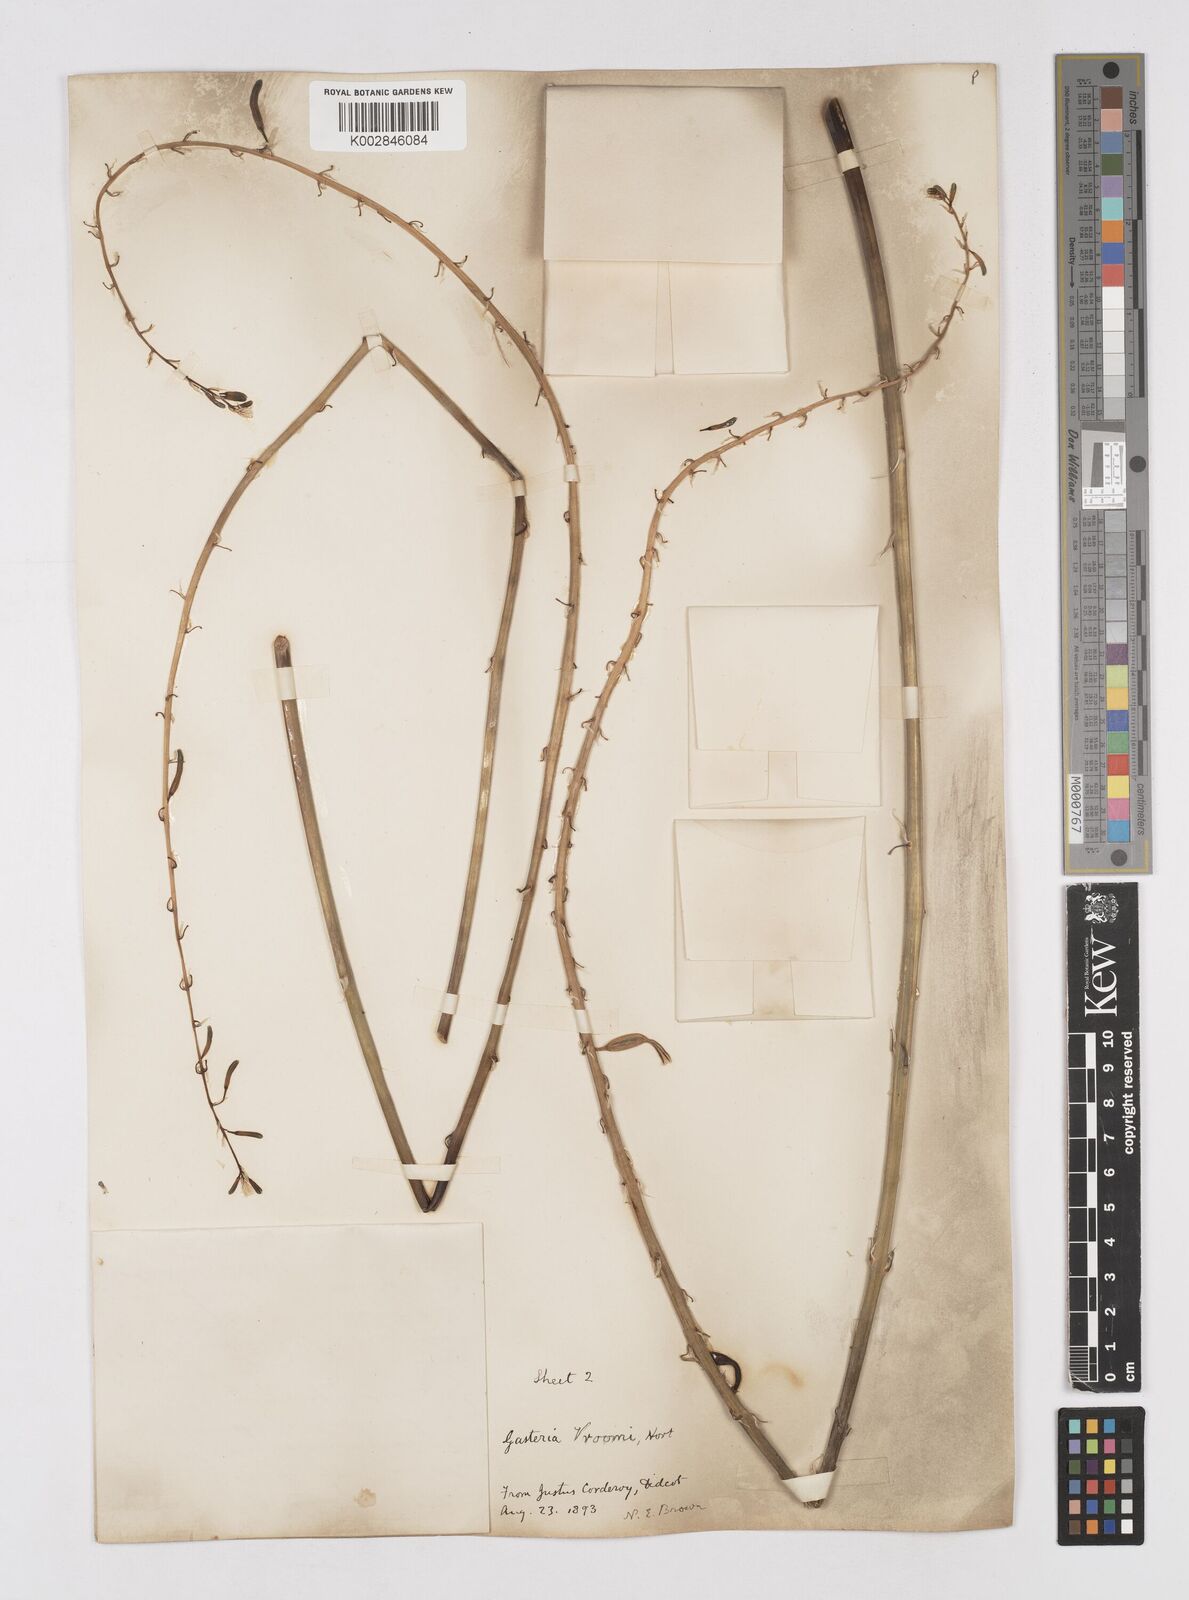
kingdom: Plantae
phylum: Tracheophyta
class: Liliopsida
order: Asparagales
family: Asphodelaceae
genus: Gasteria
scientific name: Gasteria
